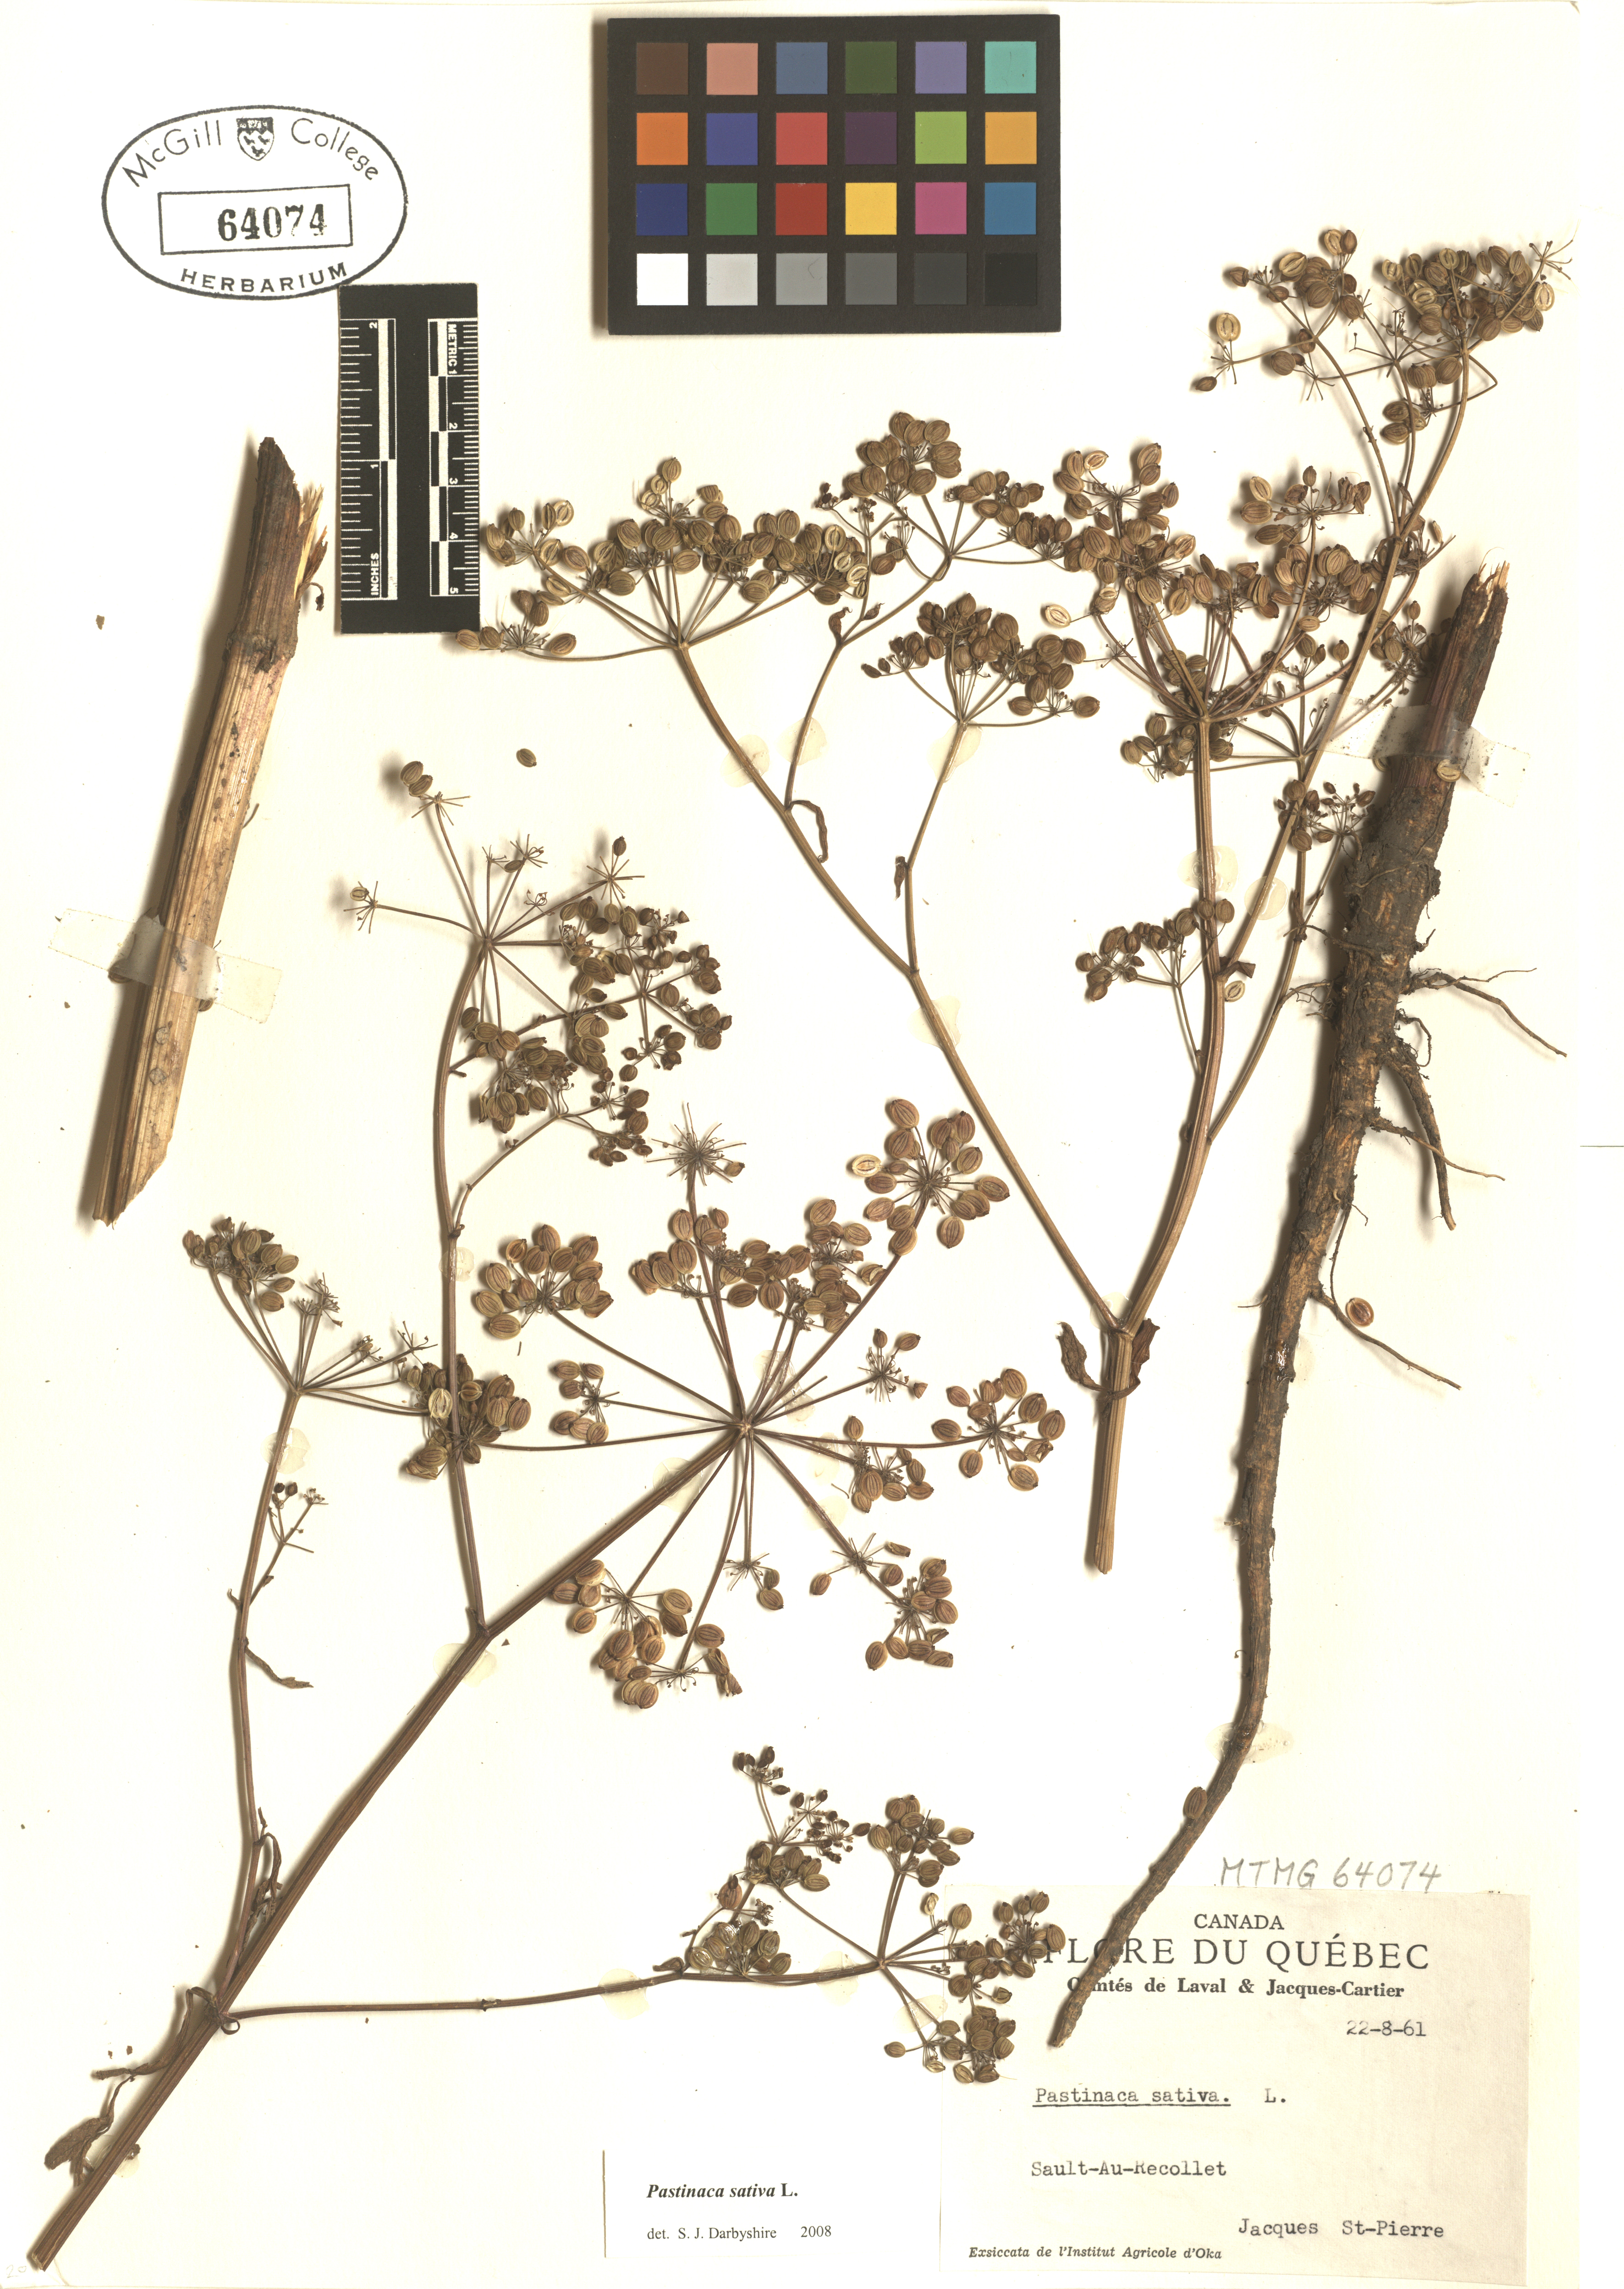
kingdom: Plantae
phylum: Tracheophyta
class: Magnoliopsida
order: Apiales
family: Apiaceae
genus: Pastinaca
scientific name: Pastinaca sativa
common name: Wild parsnip
